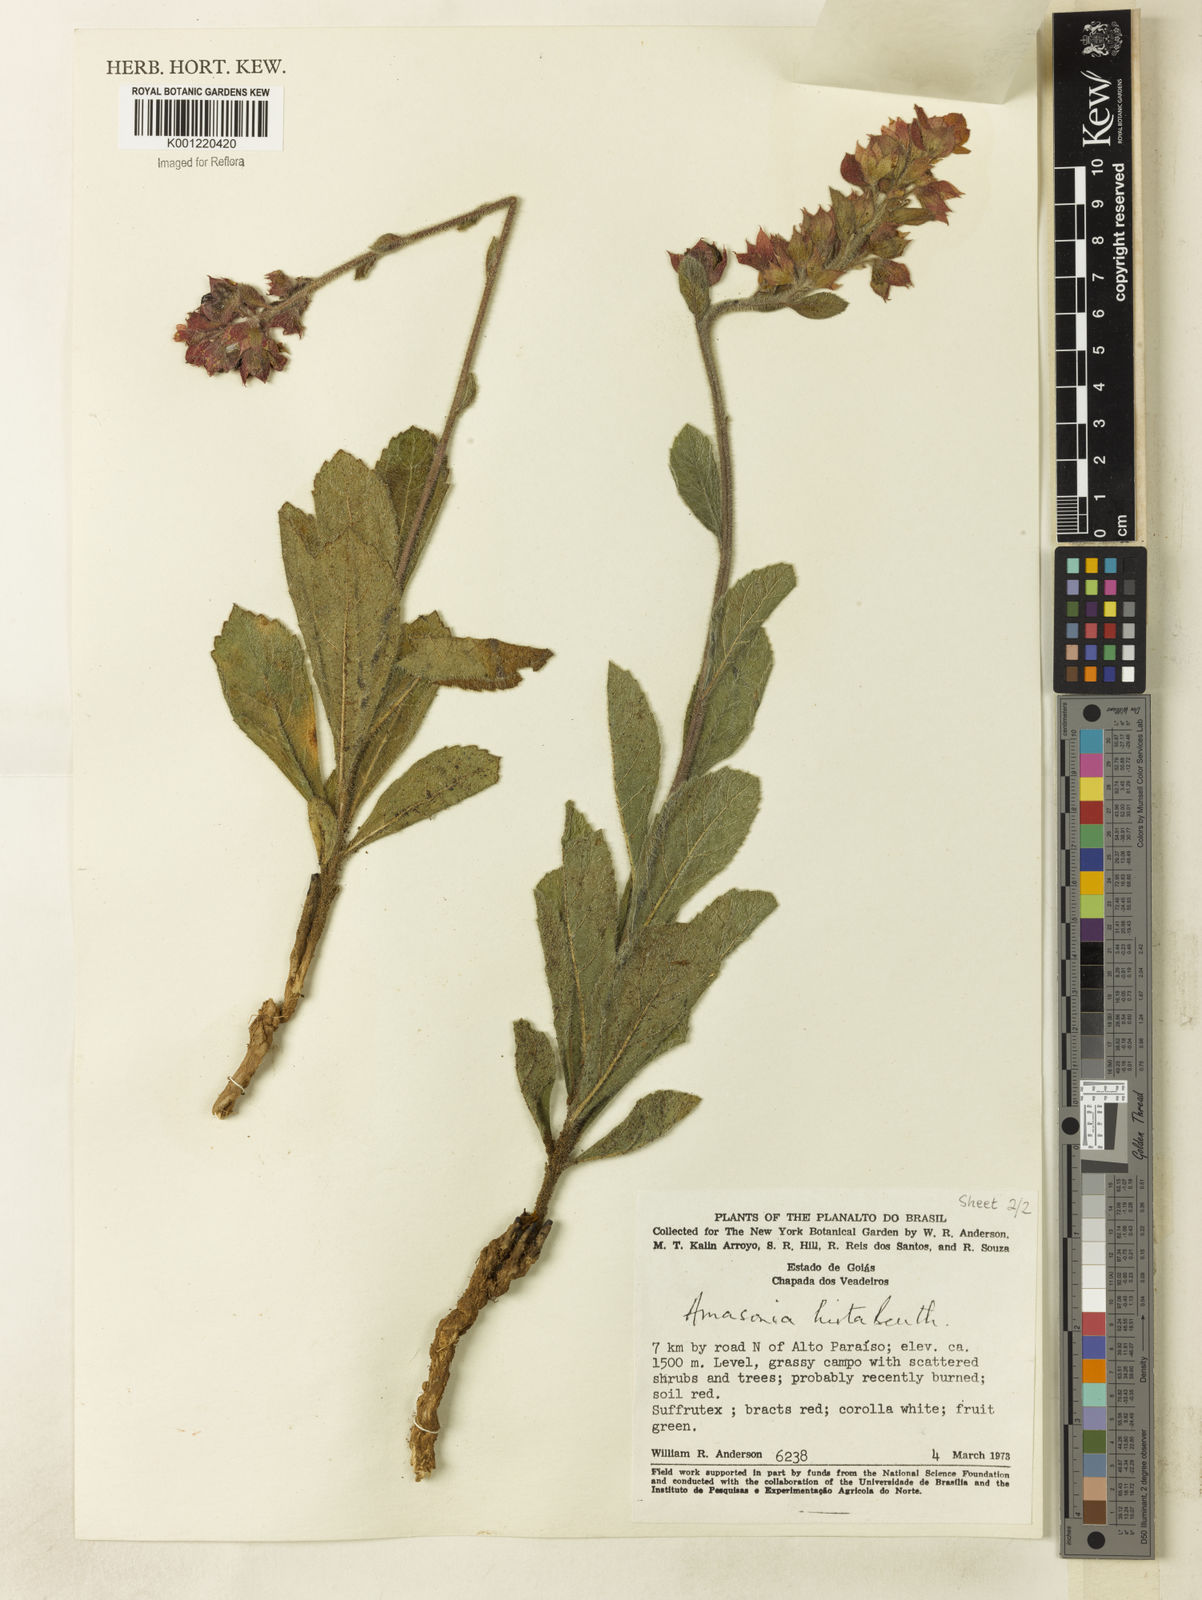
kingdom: Plantae
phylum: Tracheophyta
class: Magnoliopsida
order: Lamiales
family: Lamiaceae
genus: Amasonia
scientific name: Amasonia hirta
